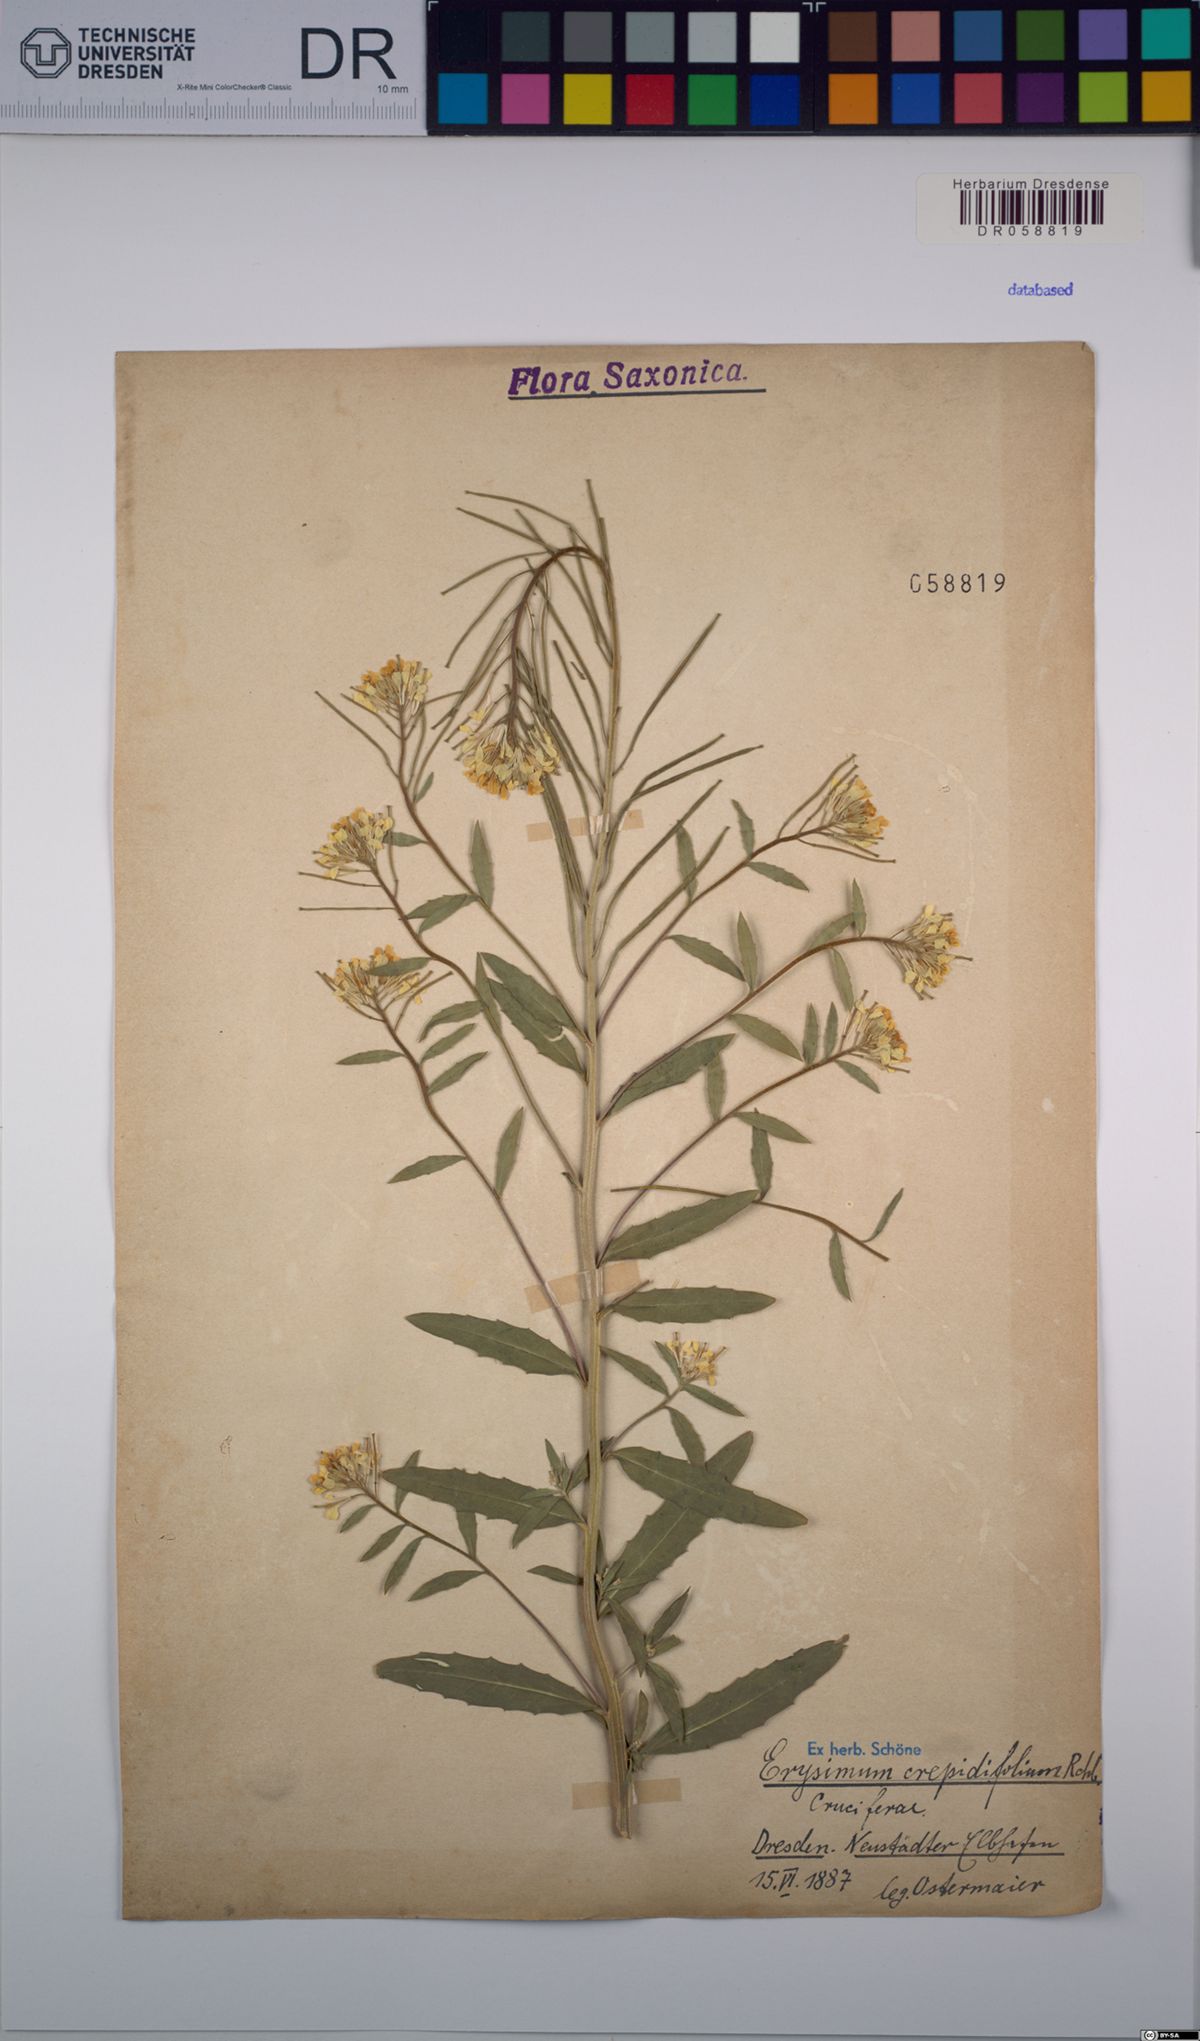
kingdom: Plantae
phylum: Tracheophyta
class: Magnoliopsida
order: Brassicales
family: Brassicaceae
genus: Erysimum
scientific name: Erysimum crepidifolium
